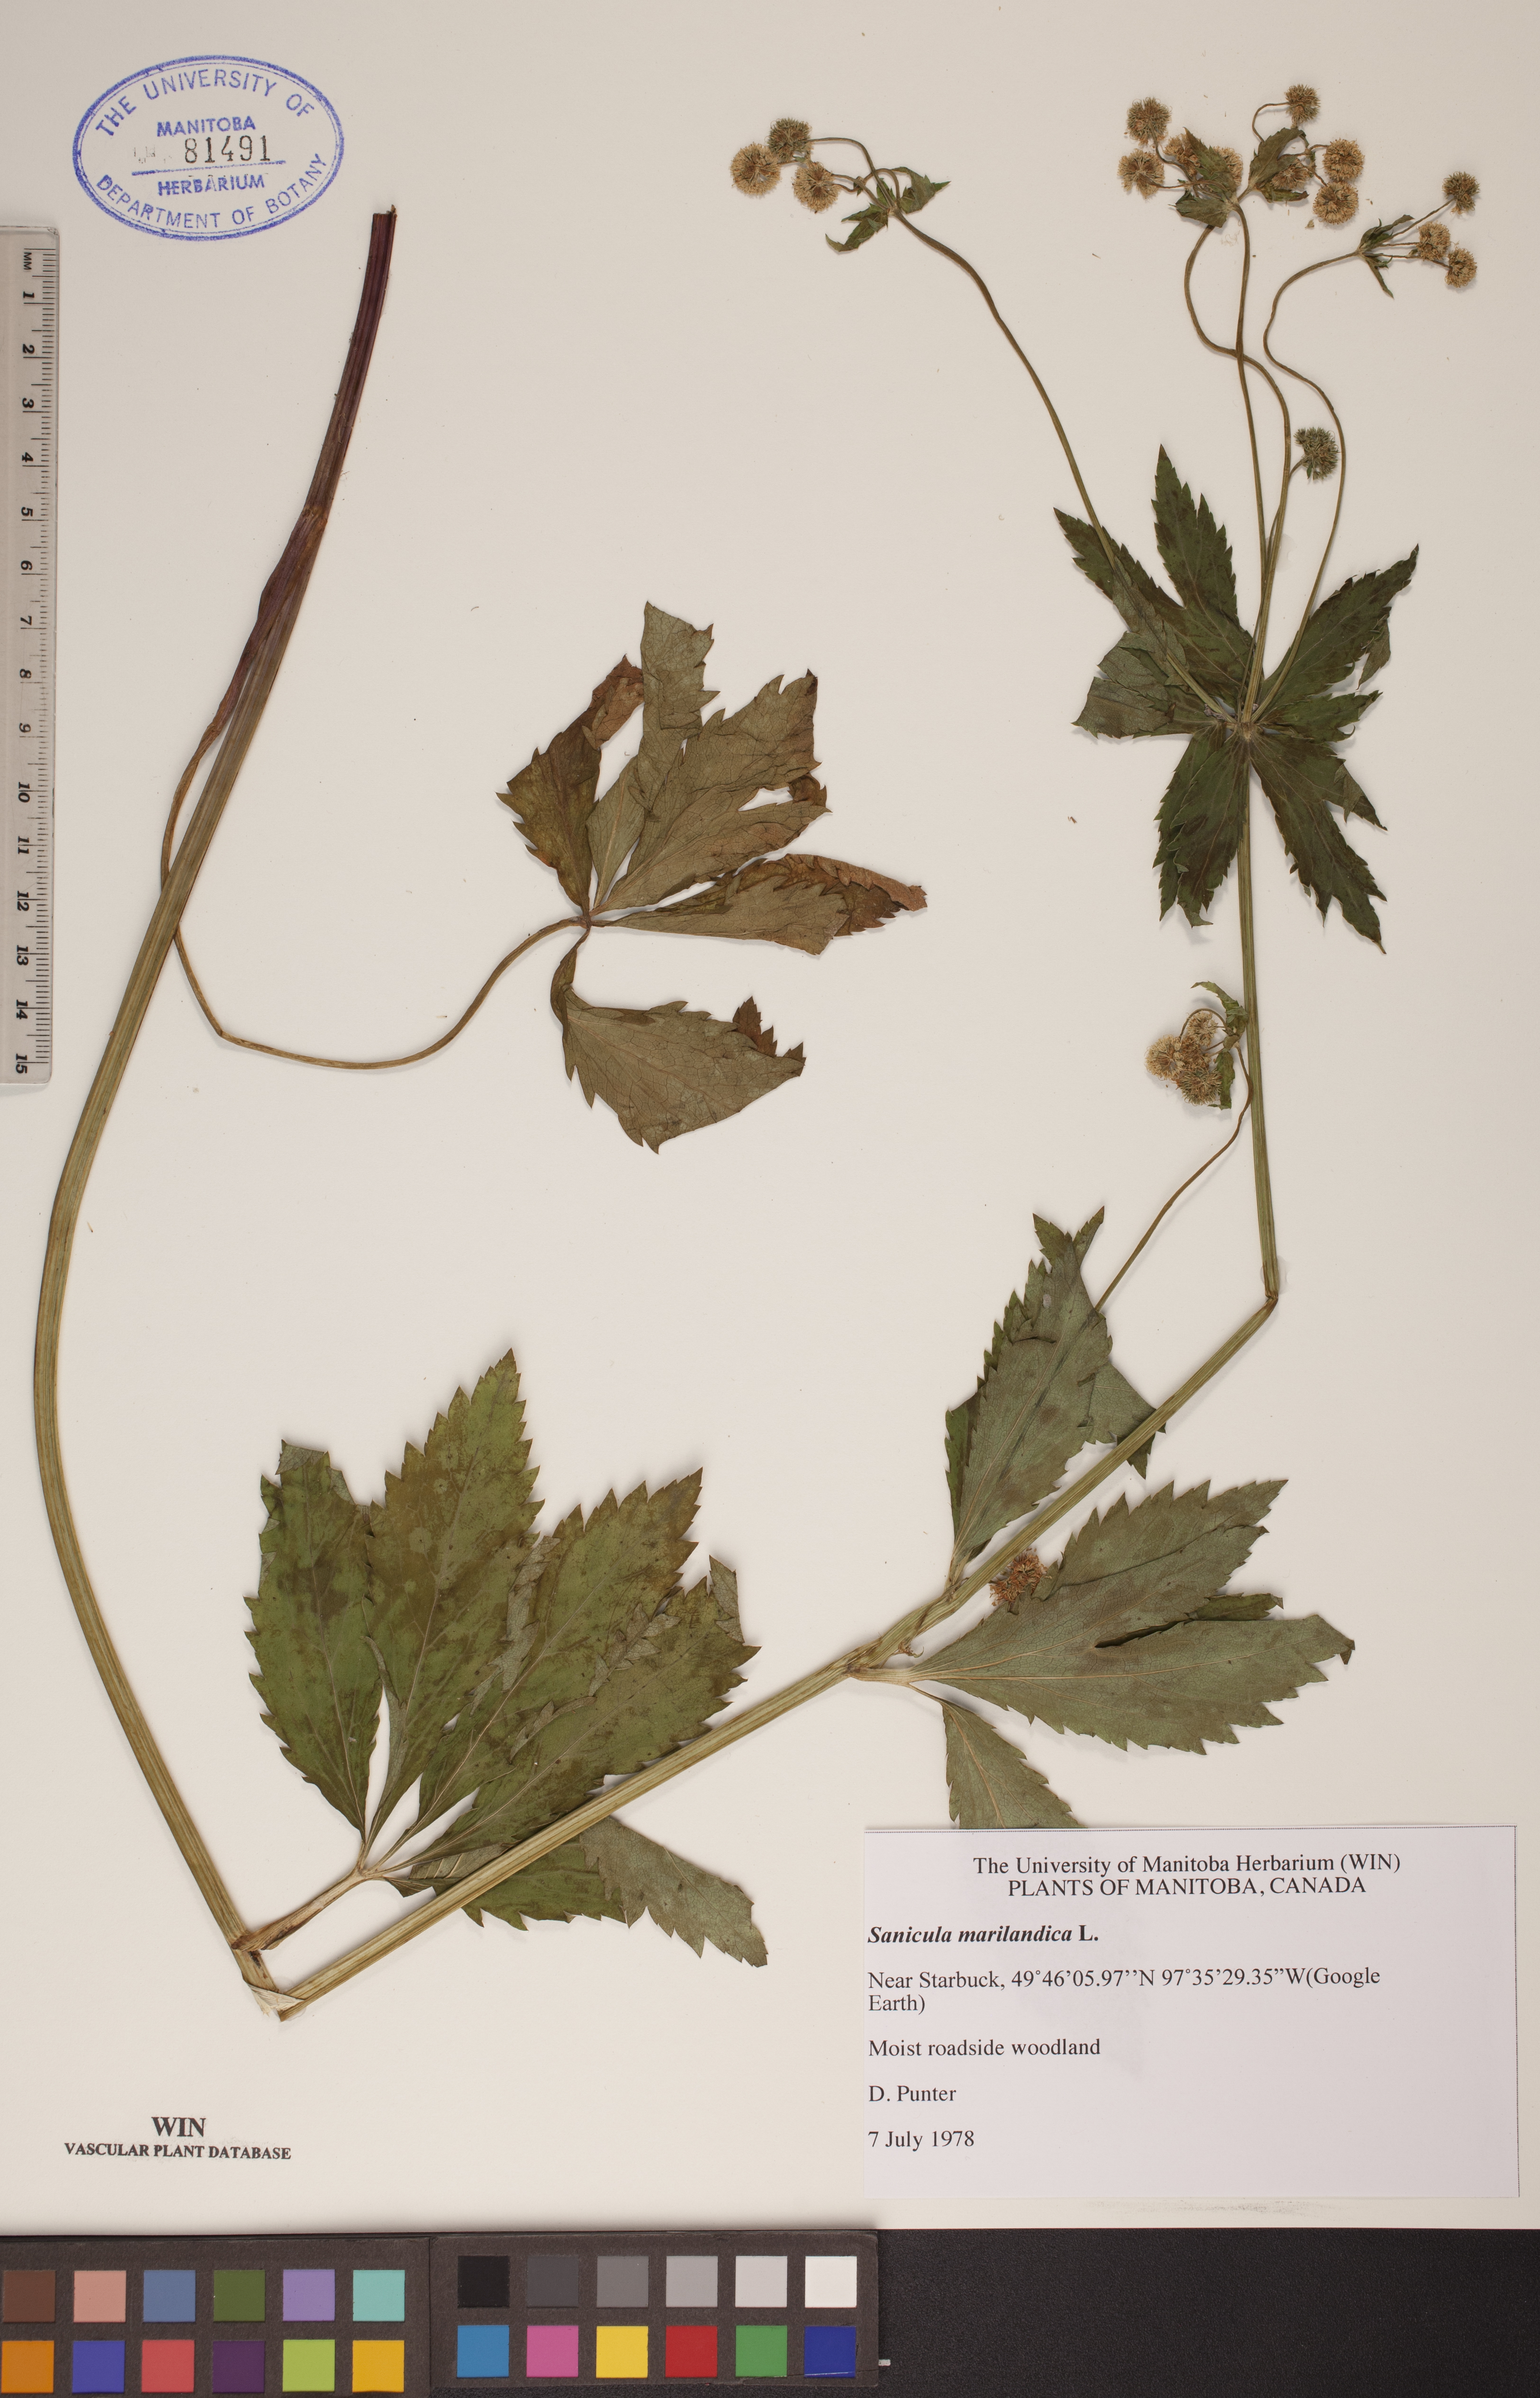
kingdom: Plantae
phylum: Tracheophyta
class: Magnoliopsida
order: Apiales
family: Apiaceae
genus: Sanicula
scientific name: Sanicula marilandica
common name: Black snakeroot
